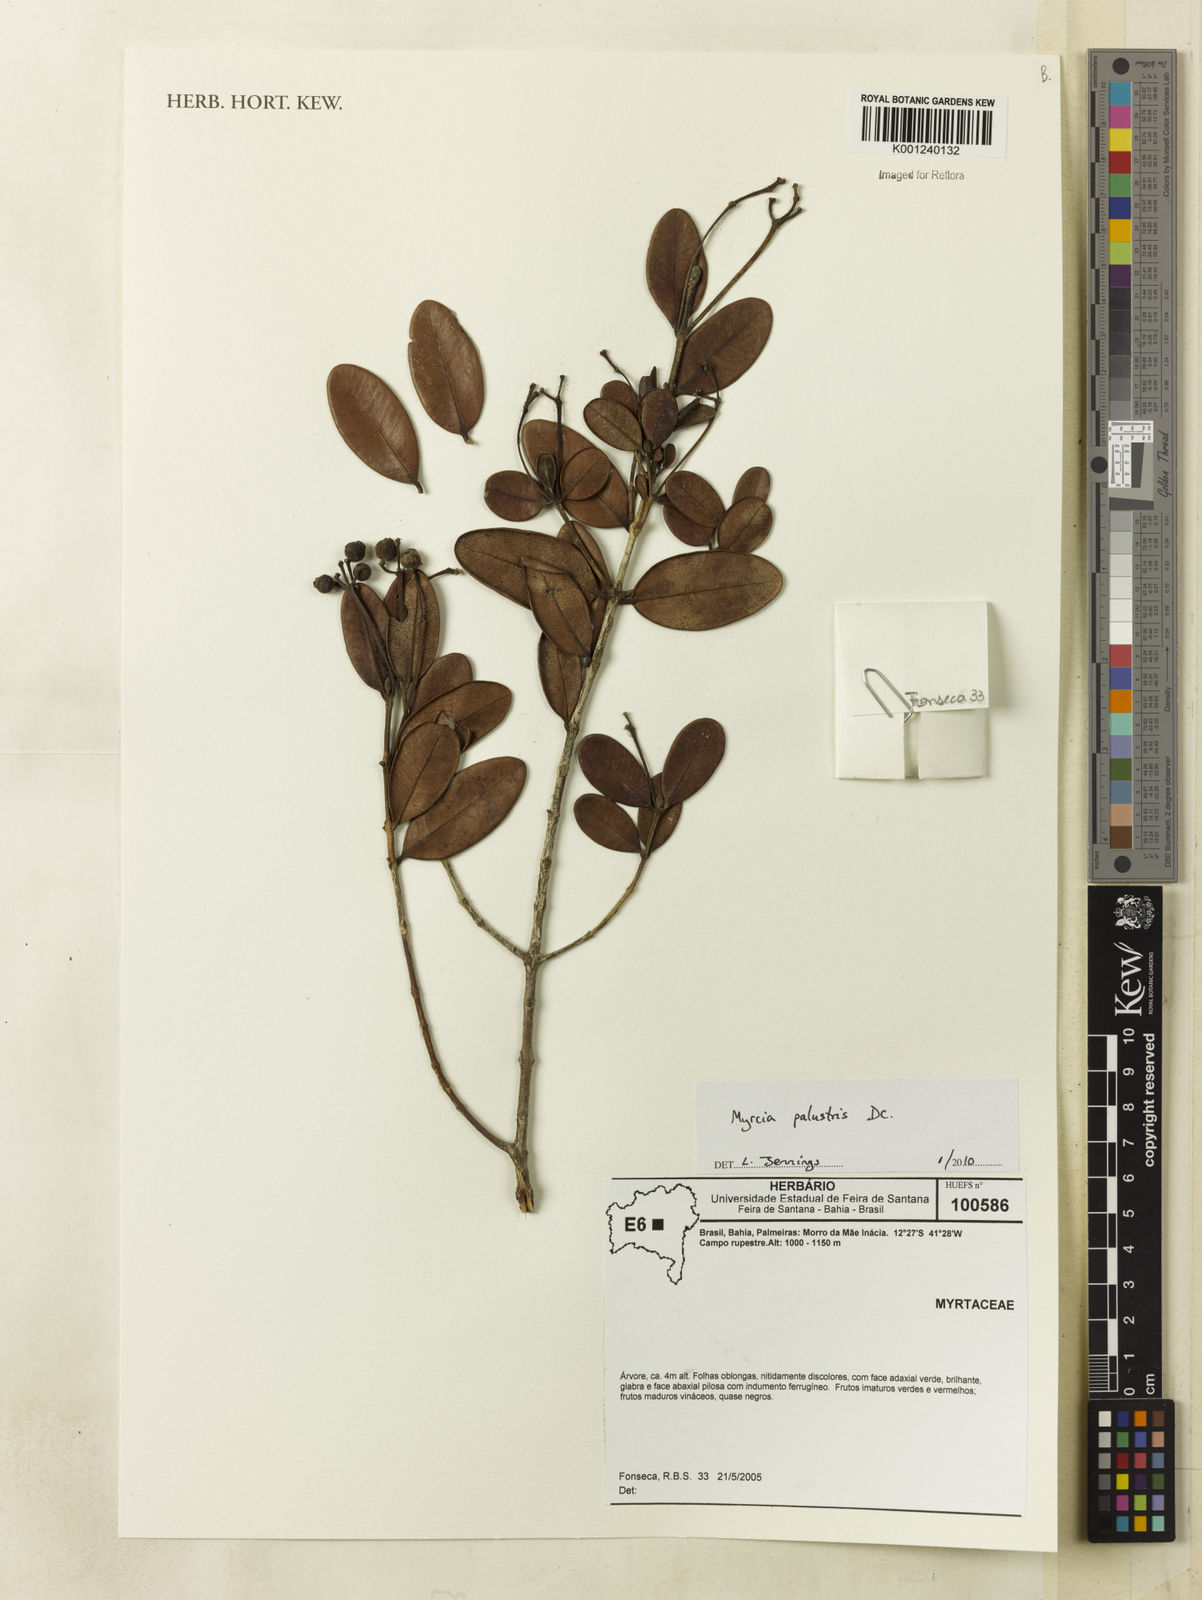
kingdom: Plantae
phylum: Tracheophyta
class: Magnoliopsida
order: Myrtales
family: Myrtaceae
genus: Myrcia
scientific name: Myrcia ilheosensis
